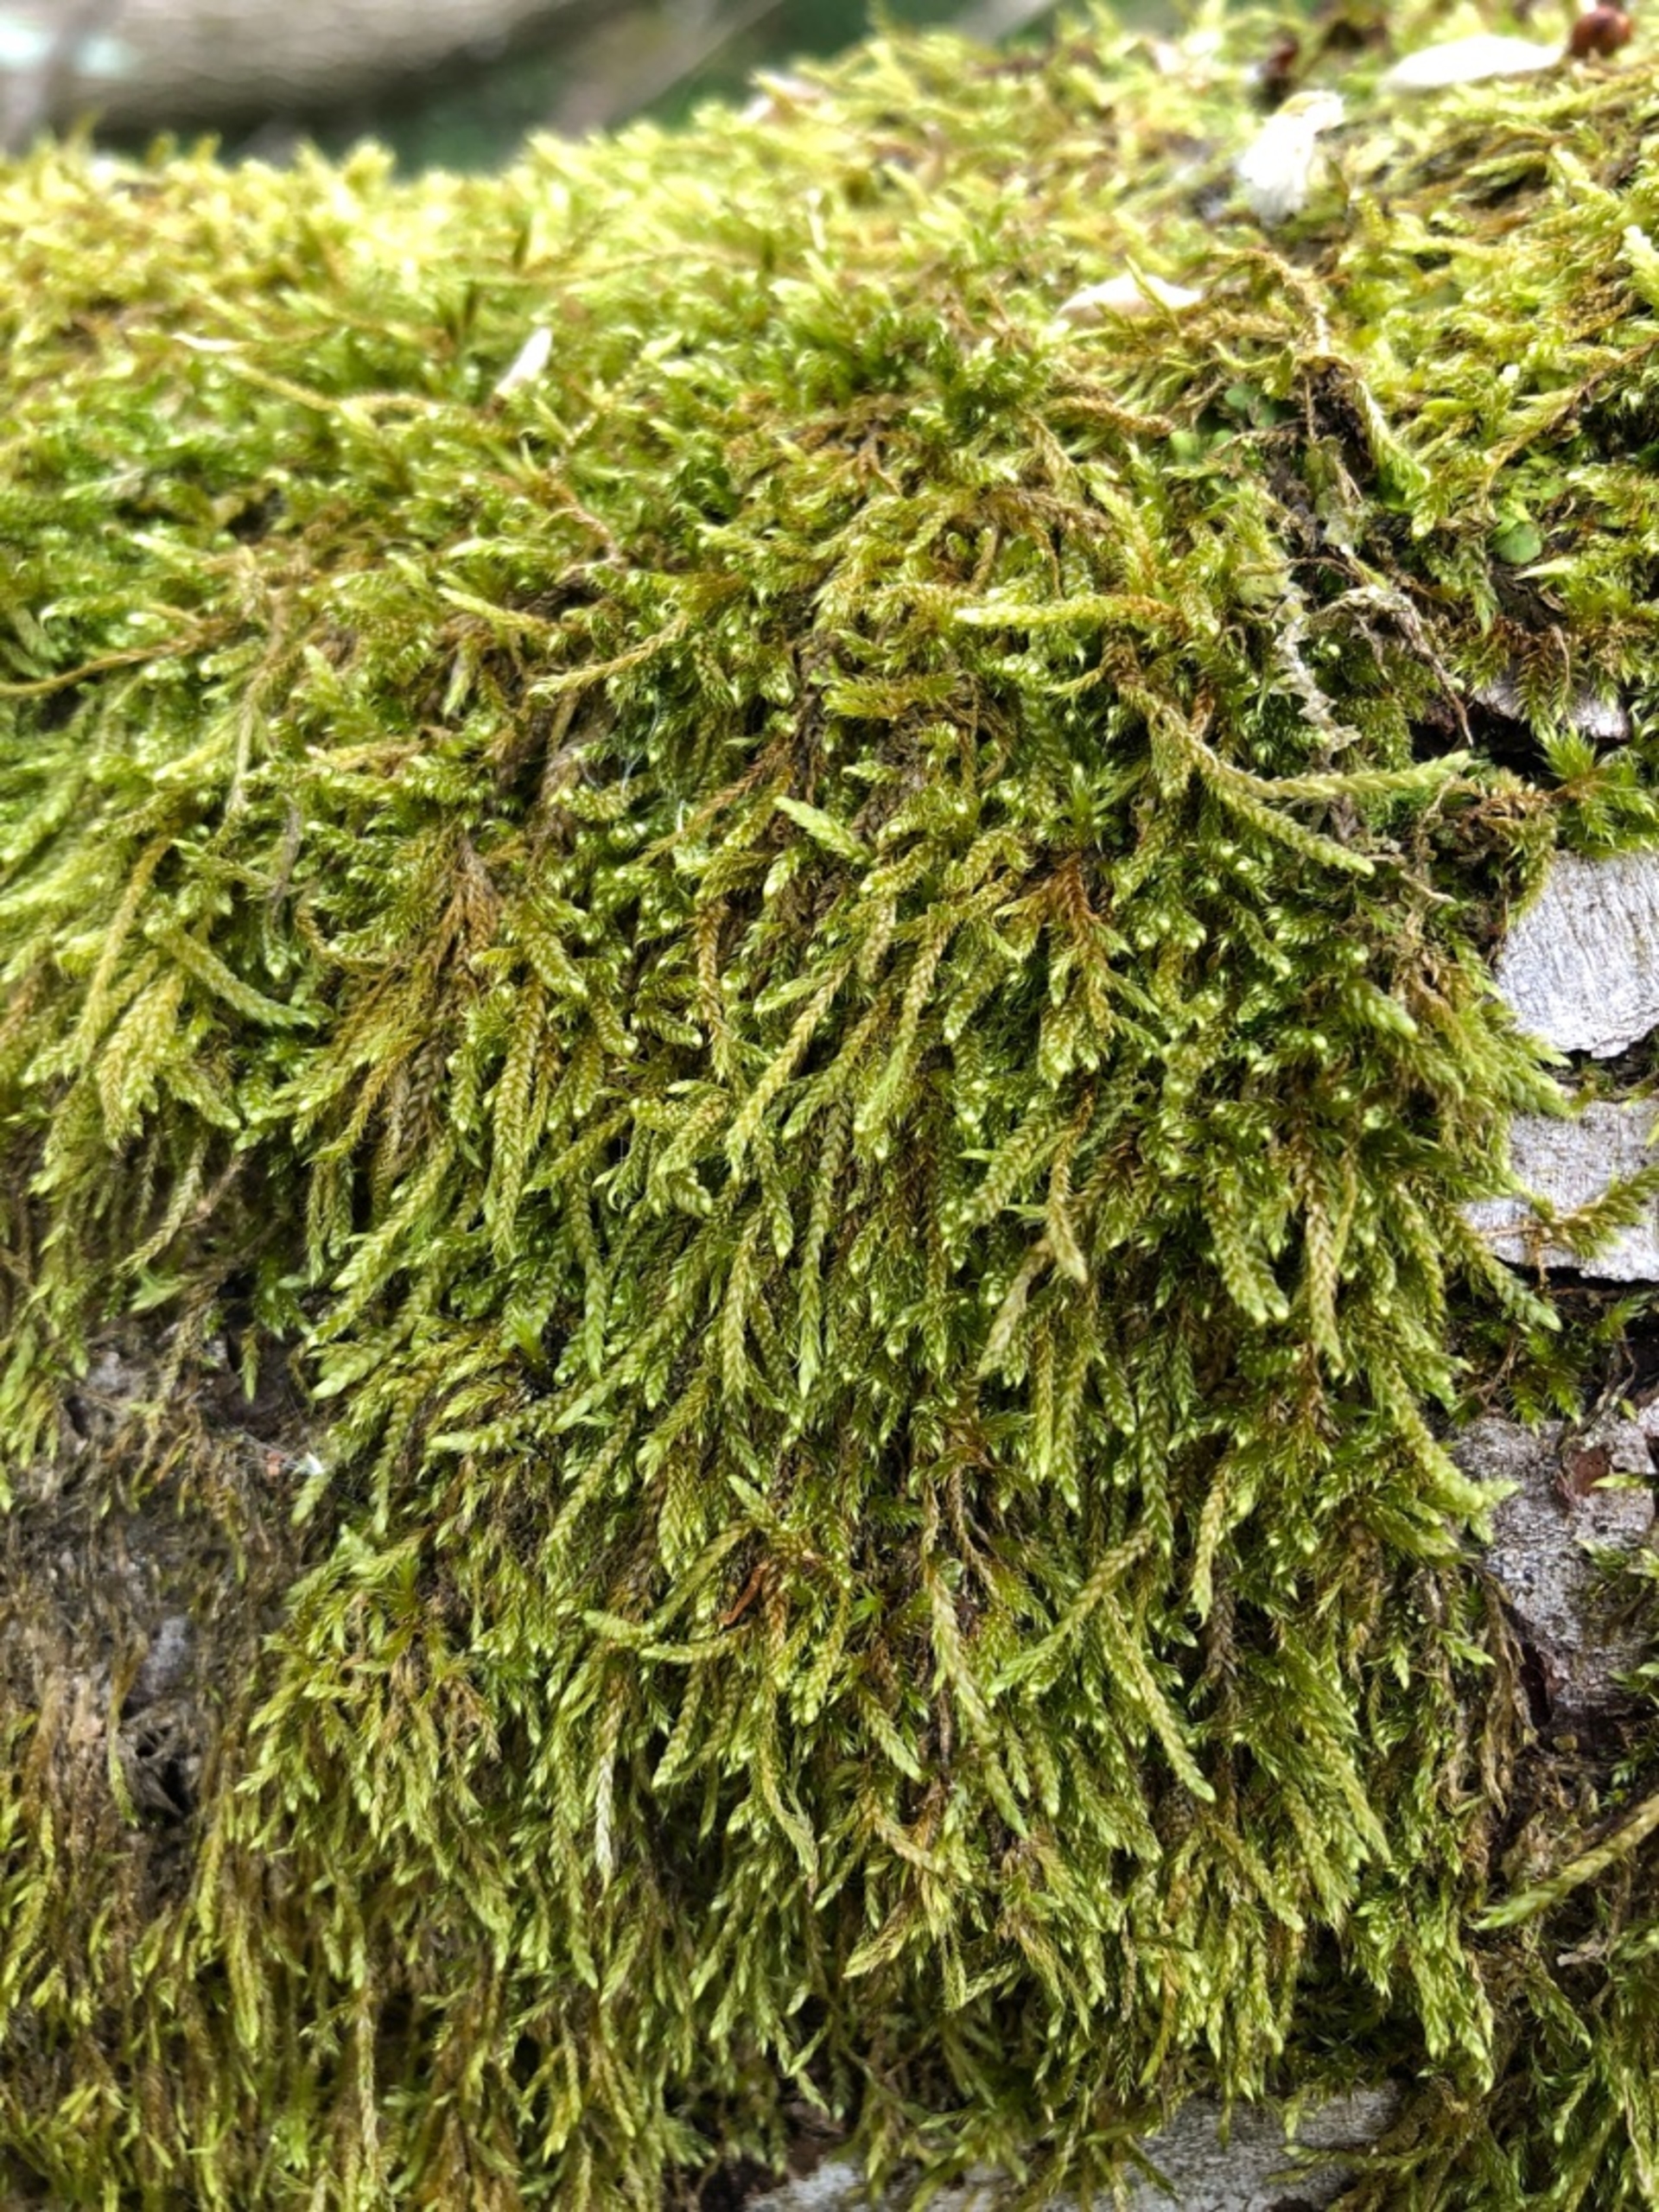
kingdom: Plantae
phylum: Bryophyta
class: Bryopsida
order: Hypnales
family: Hypnaceae
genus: Hypnum
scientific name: Hypnum cupressiforme
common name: Almindelig cypresmos
